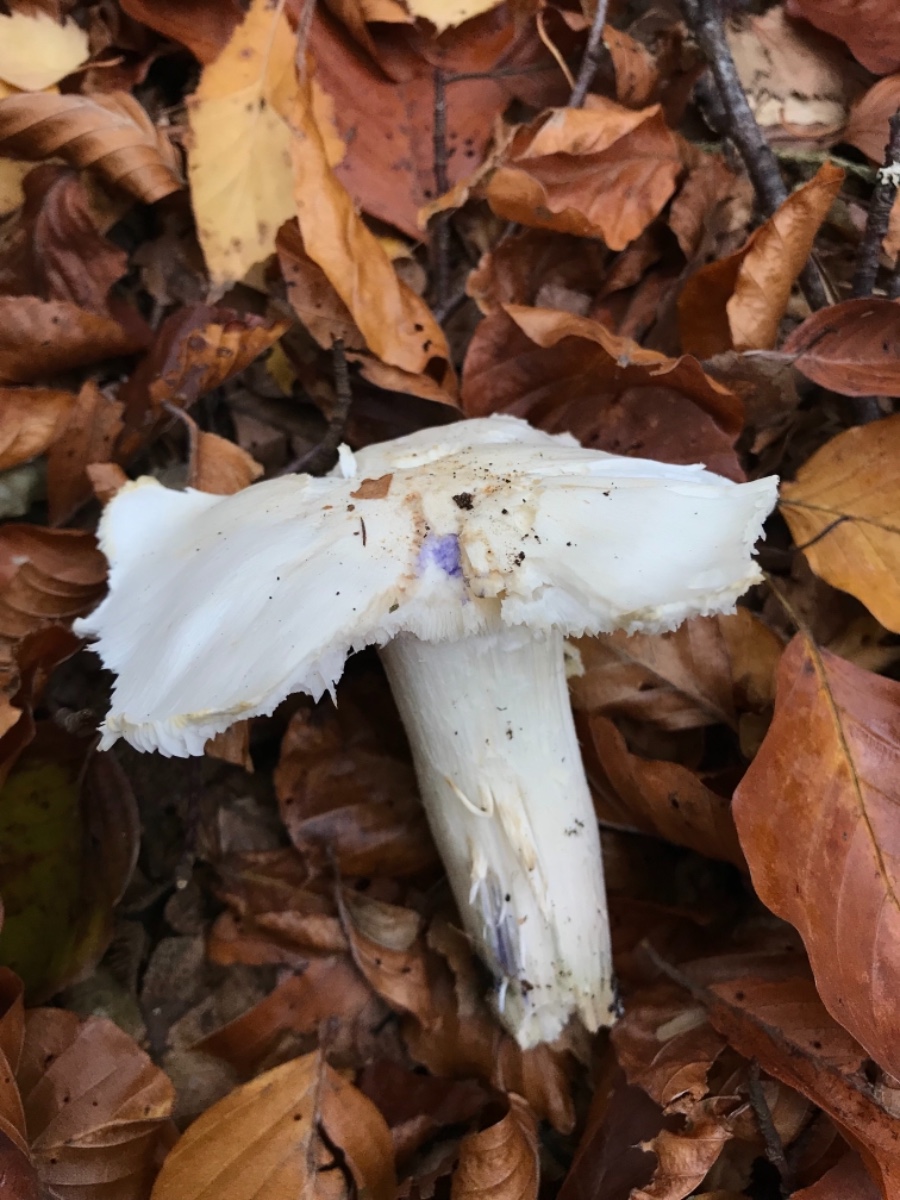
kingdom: Fungi
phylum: Basidiomycota
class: Agaricomycetes
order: Agaricales
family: Tricholomataceae
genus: Tricholoma
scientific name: Tricholoma columbetta
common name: silke-ridderhat
